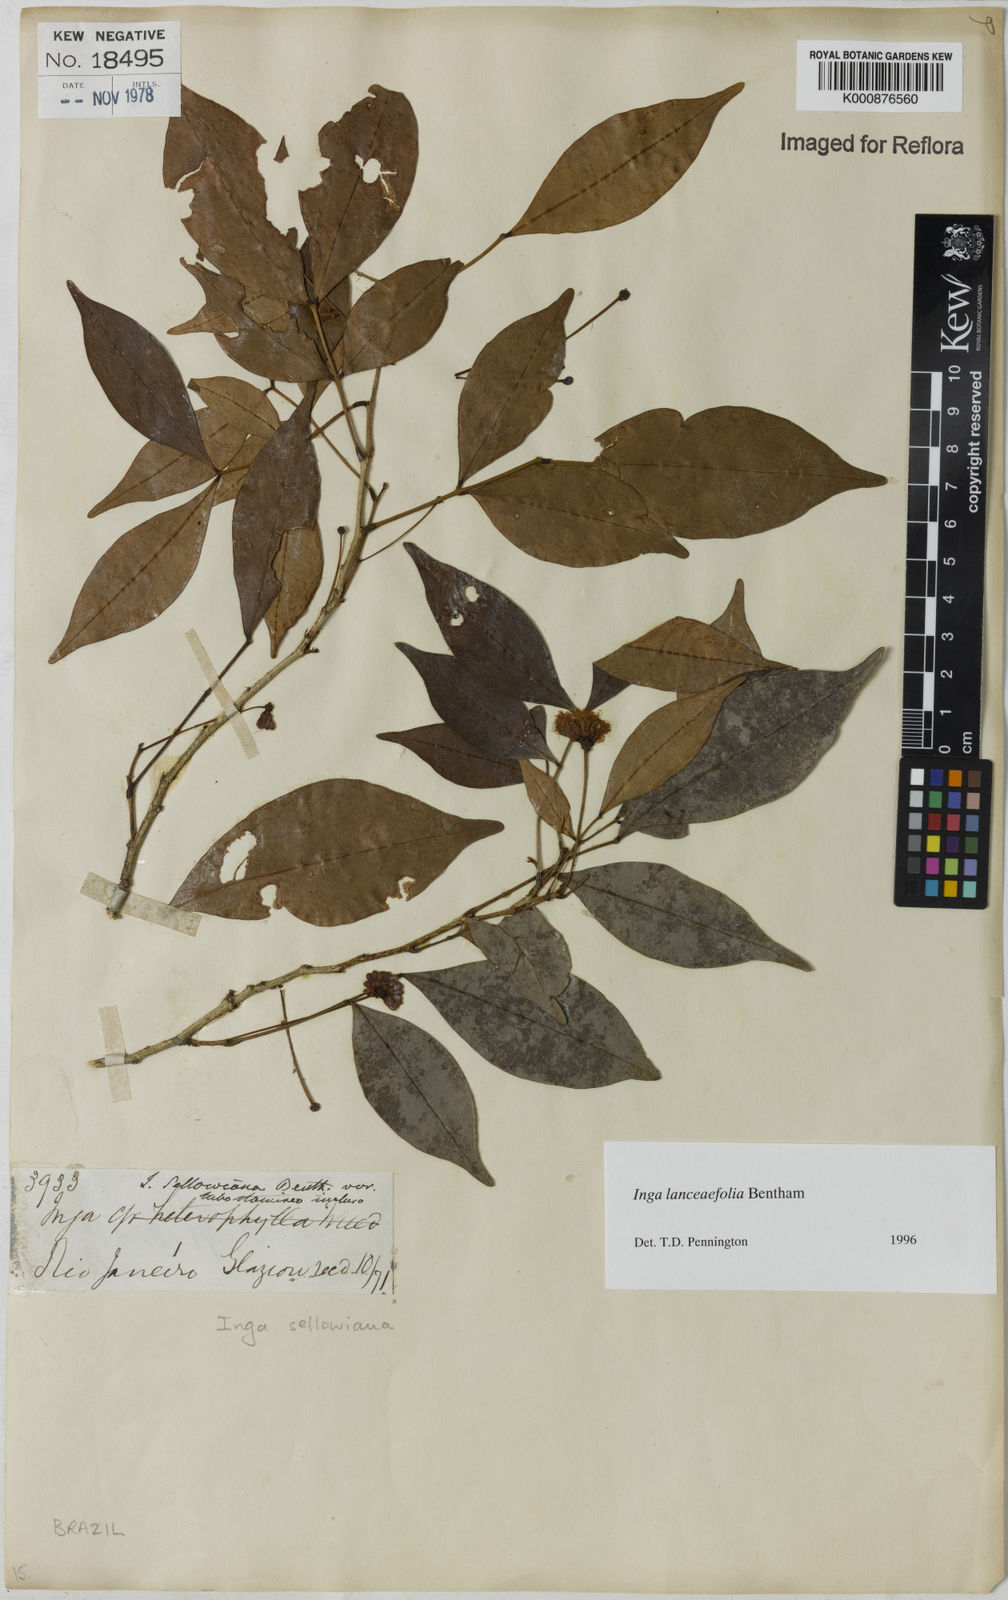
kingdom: Plantae
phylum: Tracheophyta
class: Magnoliopsida
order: Fabales
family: Fabaceae
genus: Inga
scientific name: Inga lanceifolia
